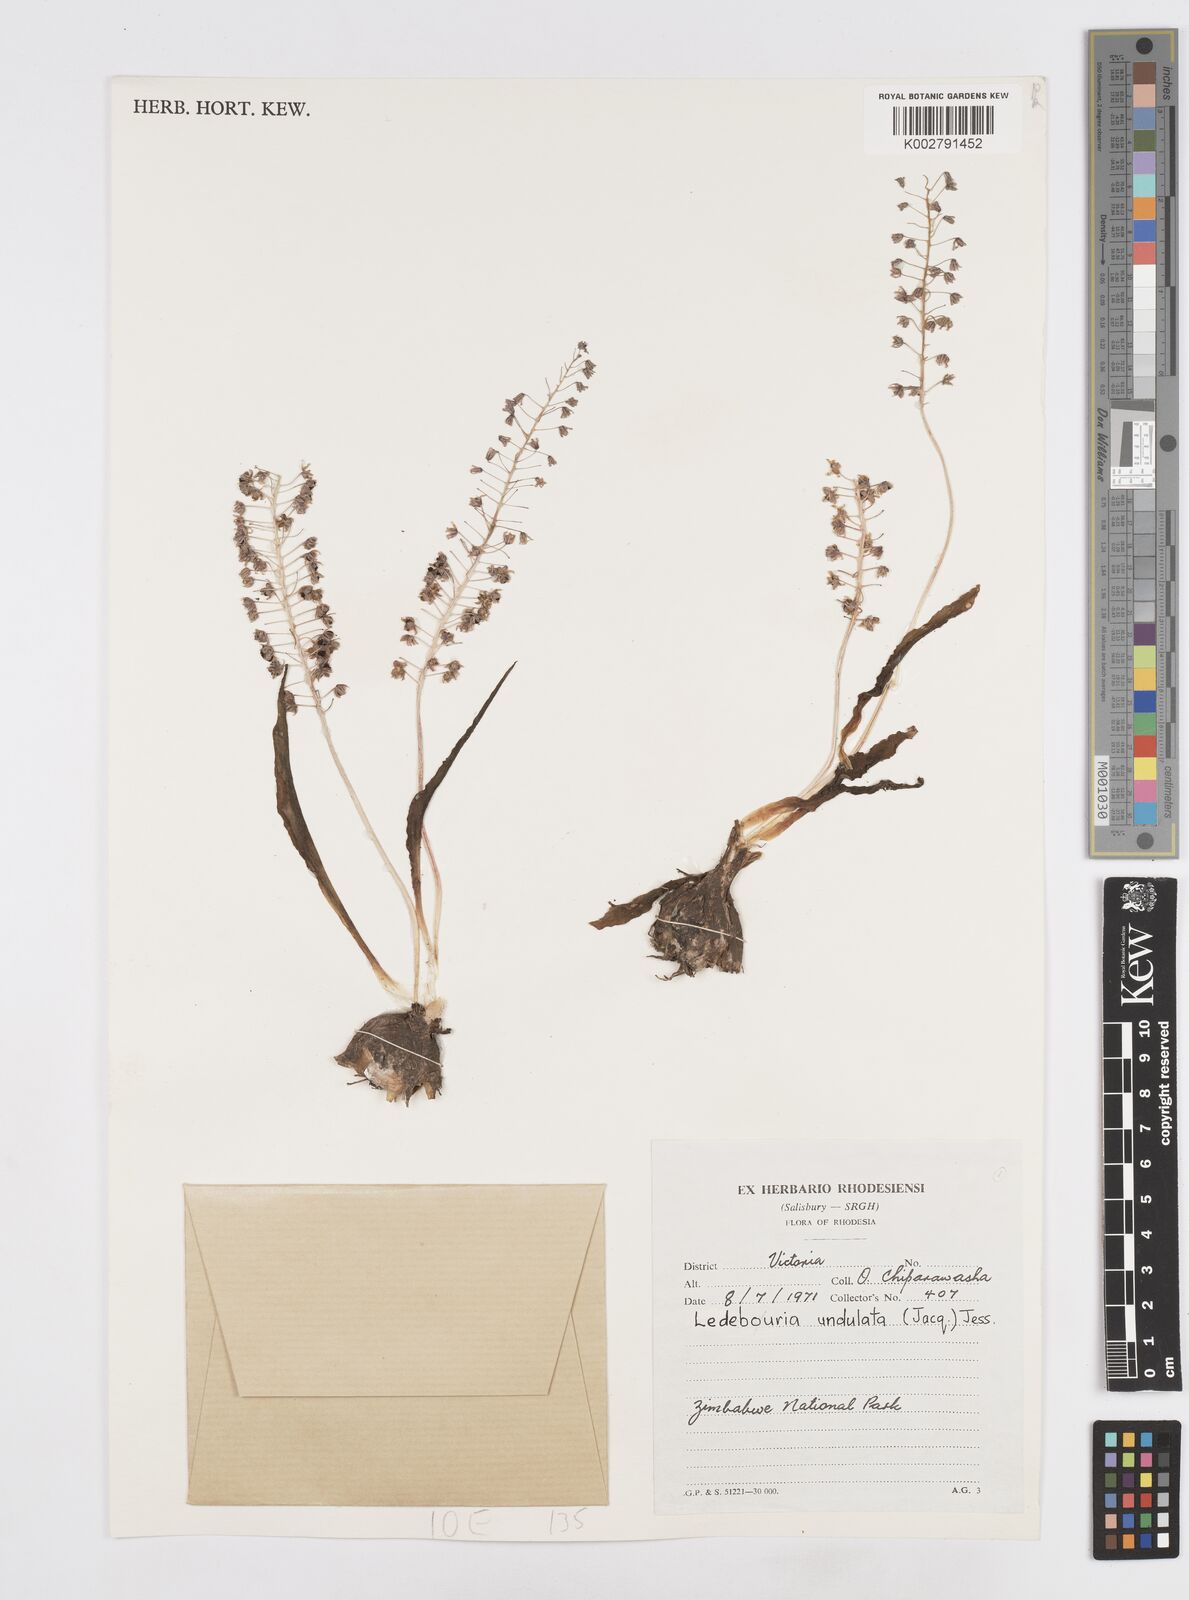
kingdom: Plantae
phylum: Tracheophyta
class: Liliopsida
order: Asparagales
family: Asparagaceae
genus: Ledebouria
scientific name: Ledebouria undulata
